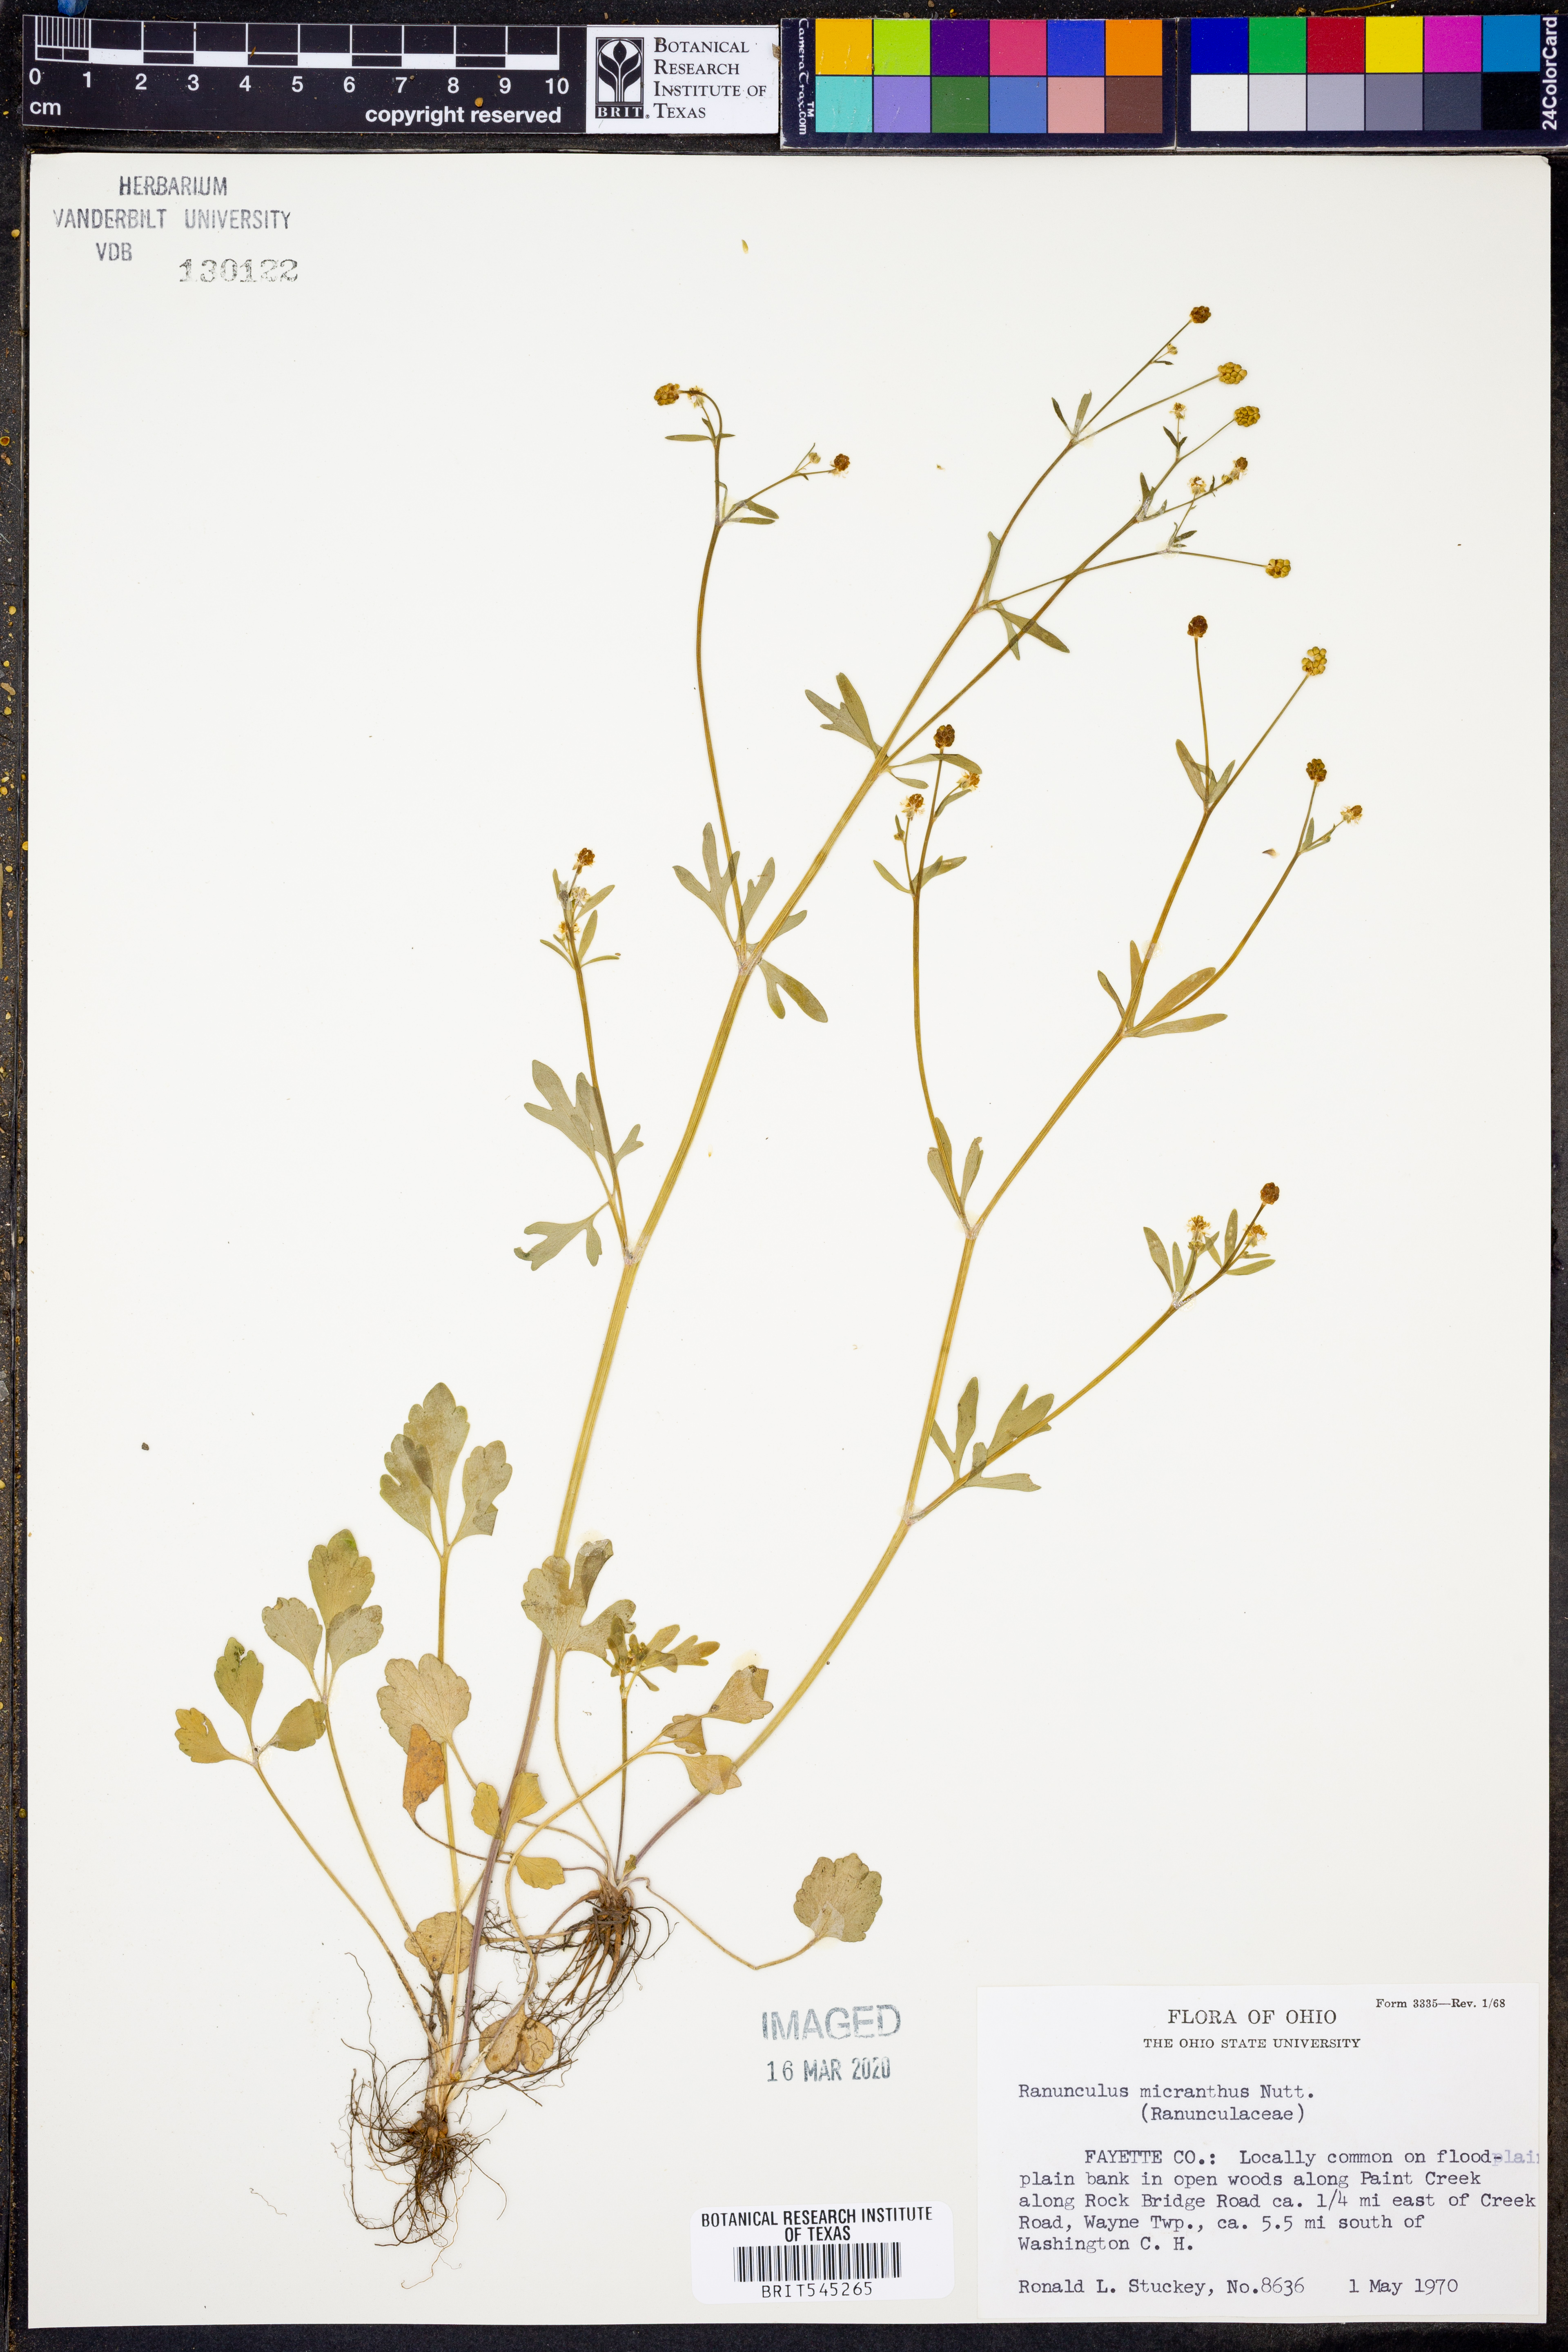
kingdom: Plantae
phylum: Tracheophyta
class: Magnoliopsida
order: Ranunculales
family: Ranunculaceae
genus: Ranunculus
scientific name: Ranunculus micranthus
